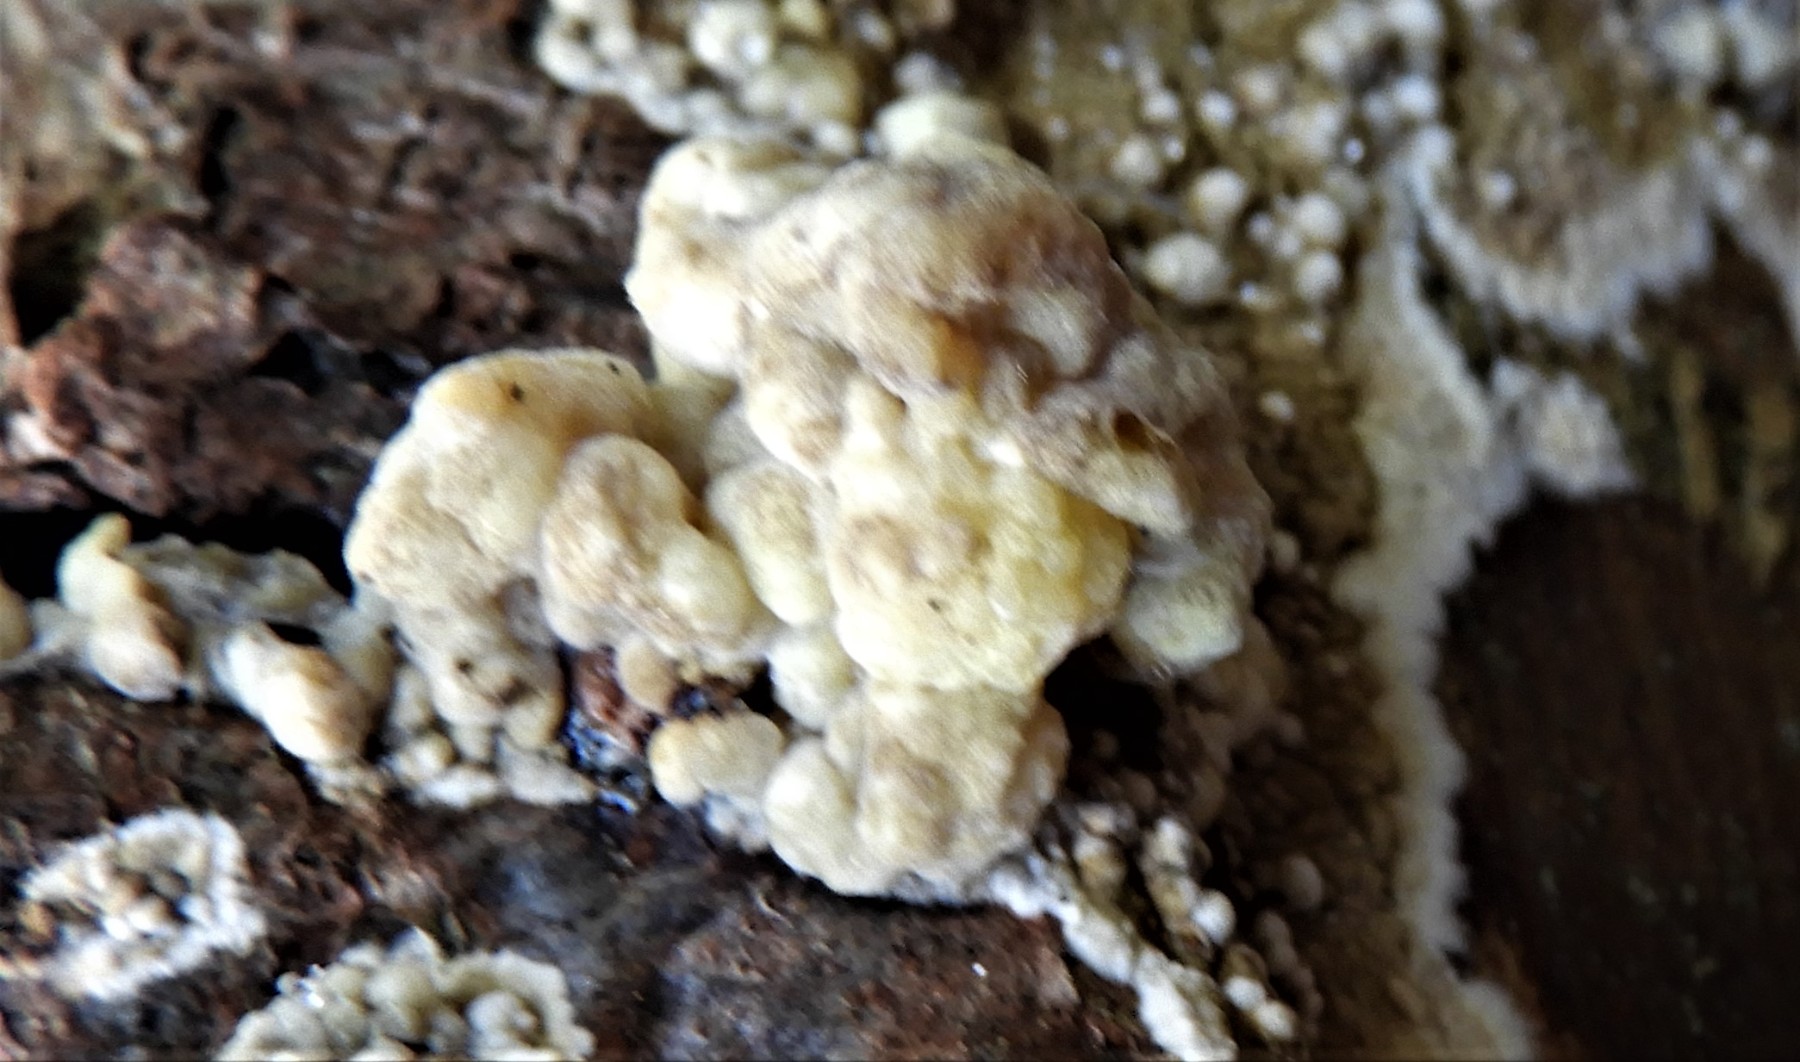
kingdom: Fungi
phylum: Ascomycota
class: Sordariomycetes
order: Xylariales
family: Hypoxylaceae
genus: Nodulisporium
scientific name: Nodulisporium cecidiogenes
